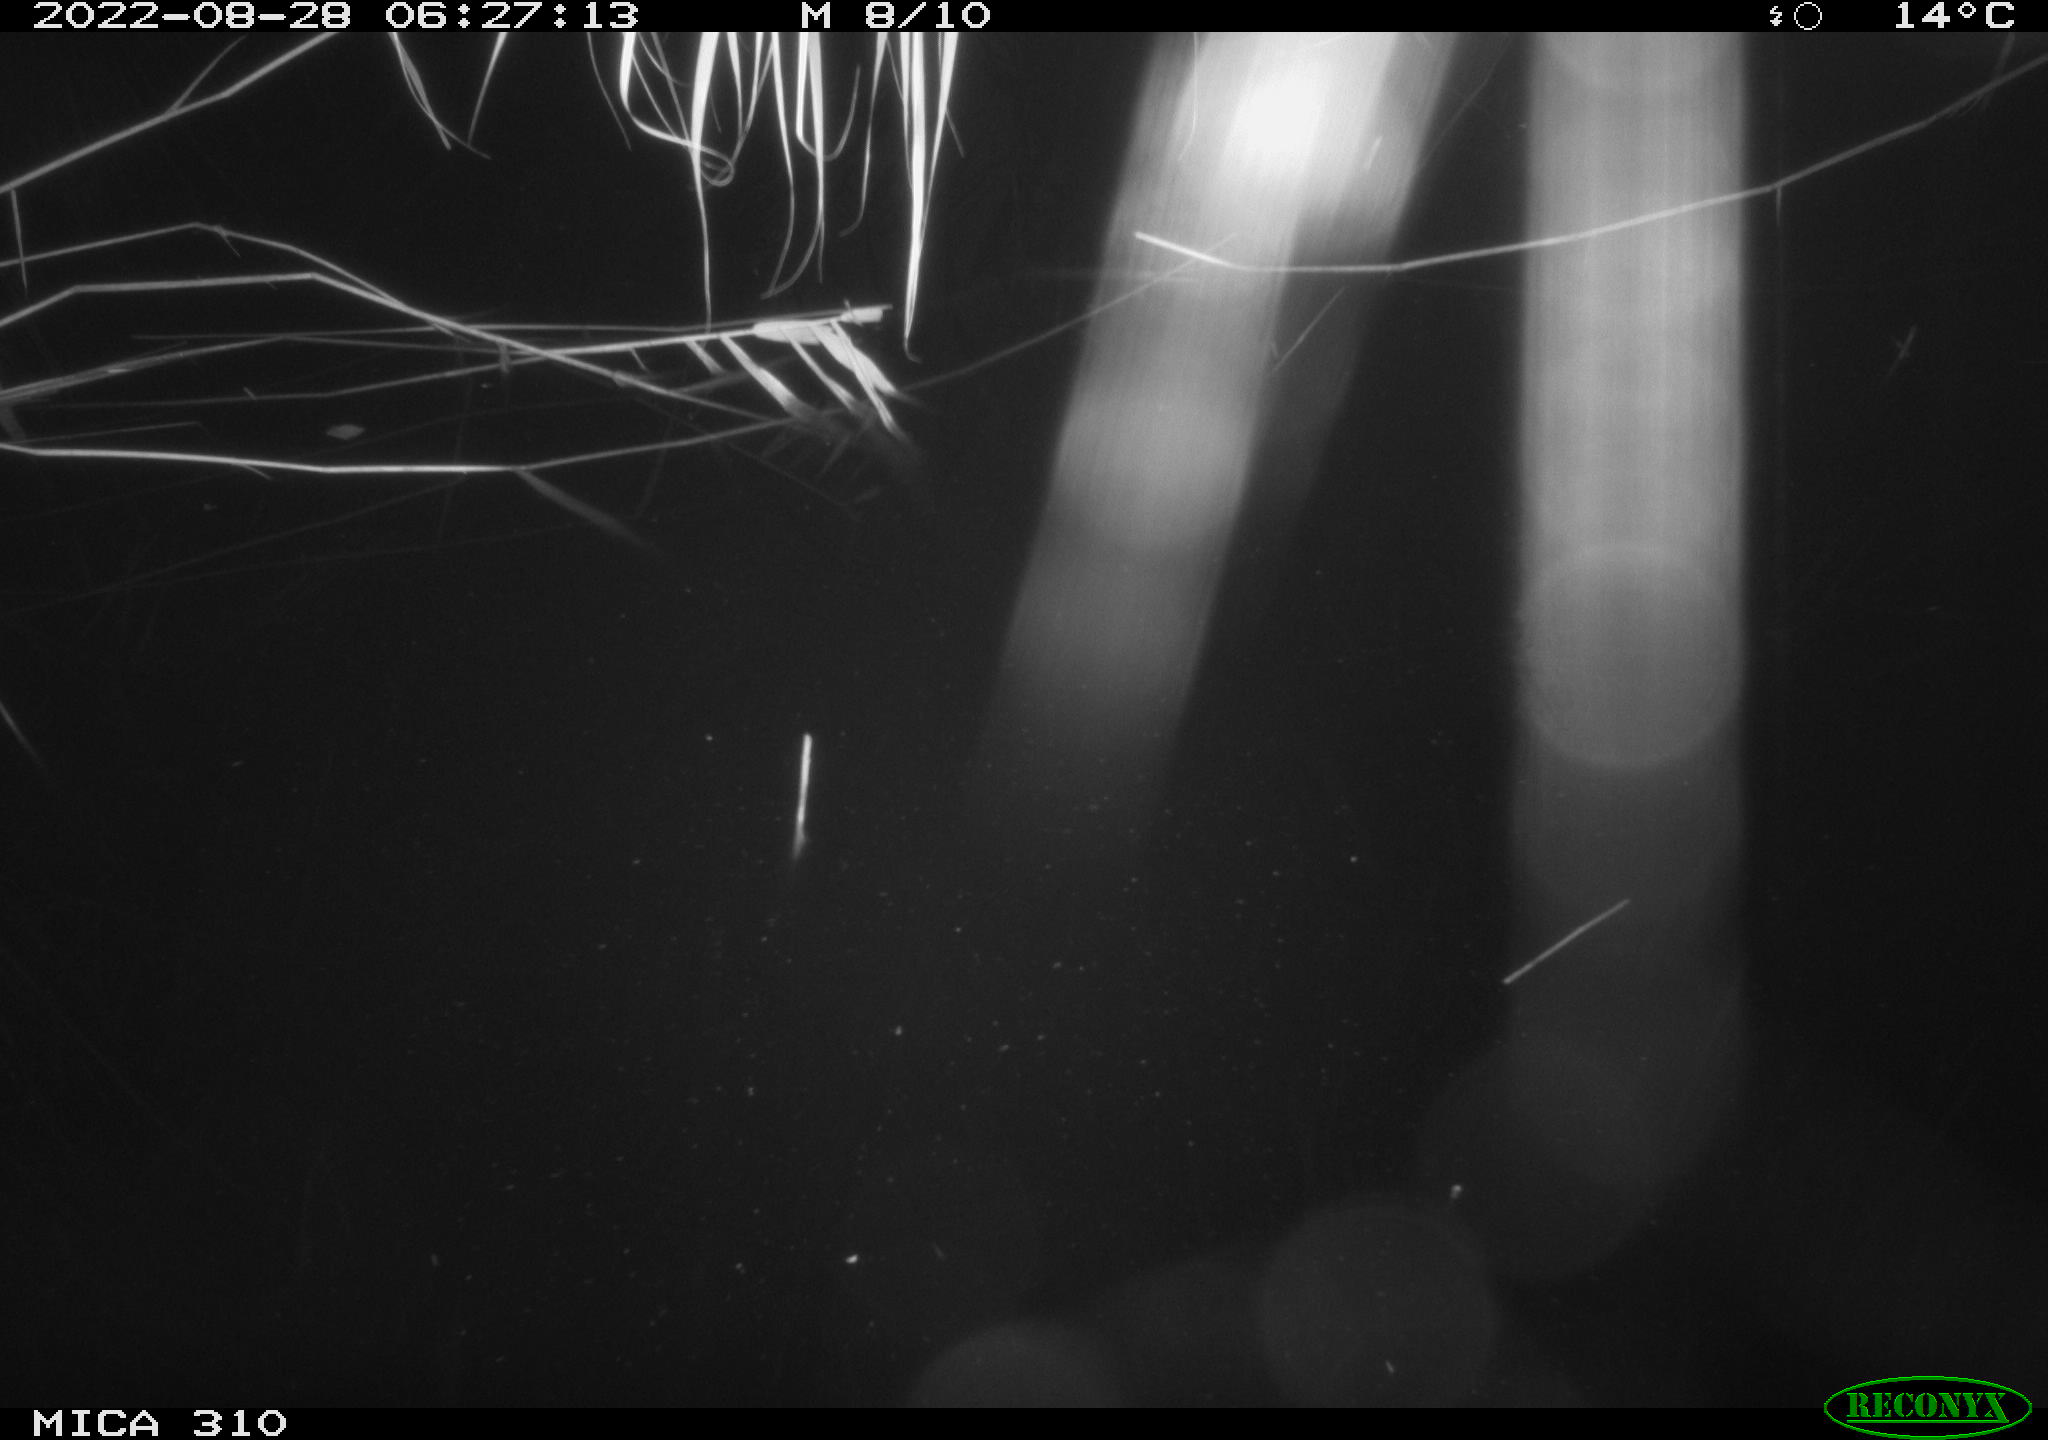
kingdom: Animalia
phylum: Chordata
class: Aves
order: Gruiformes
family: Rallidae
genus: Fulica
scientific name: Fulica atra
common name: Eurasian coot
